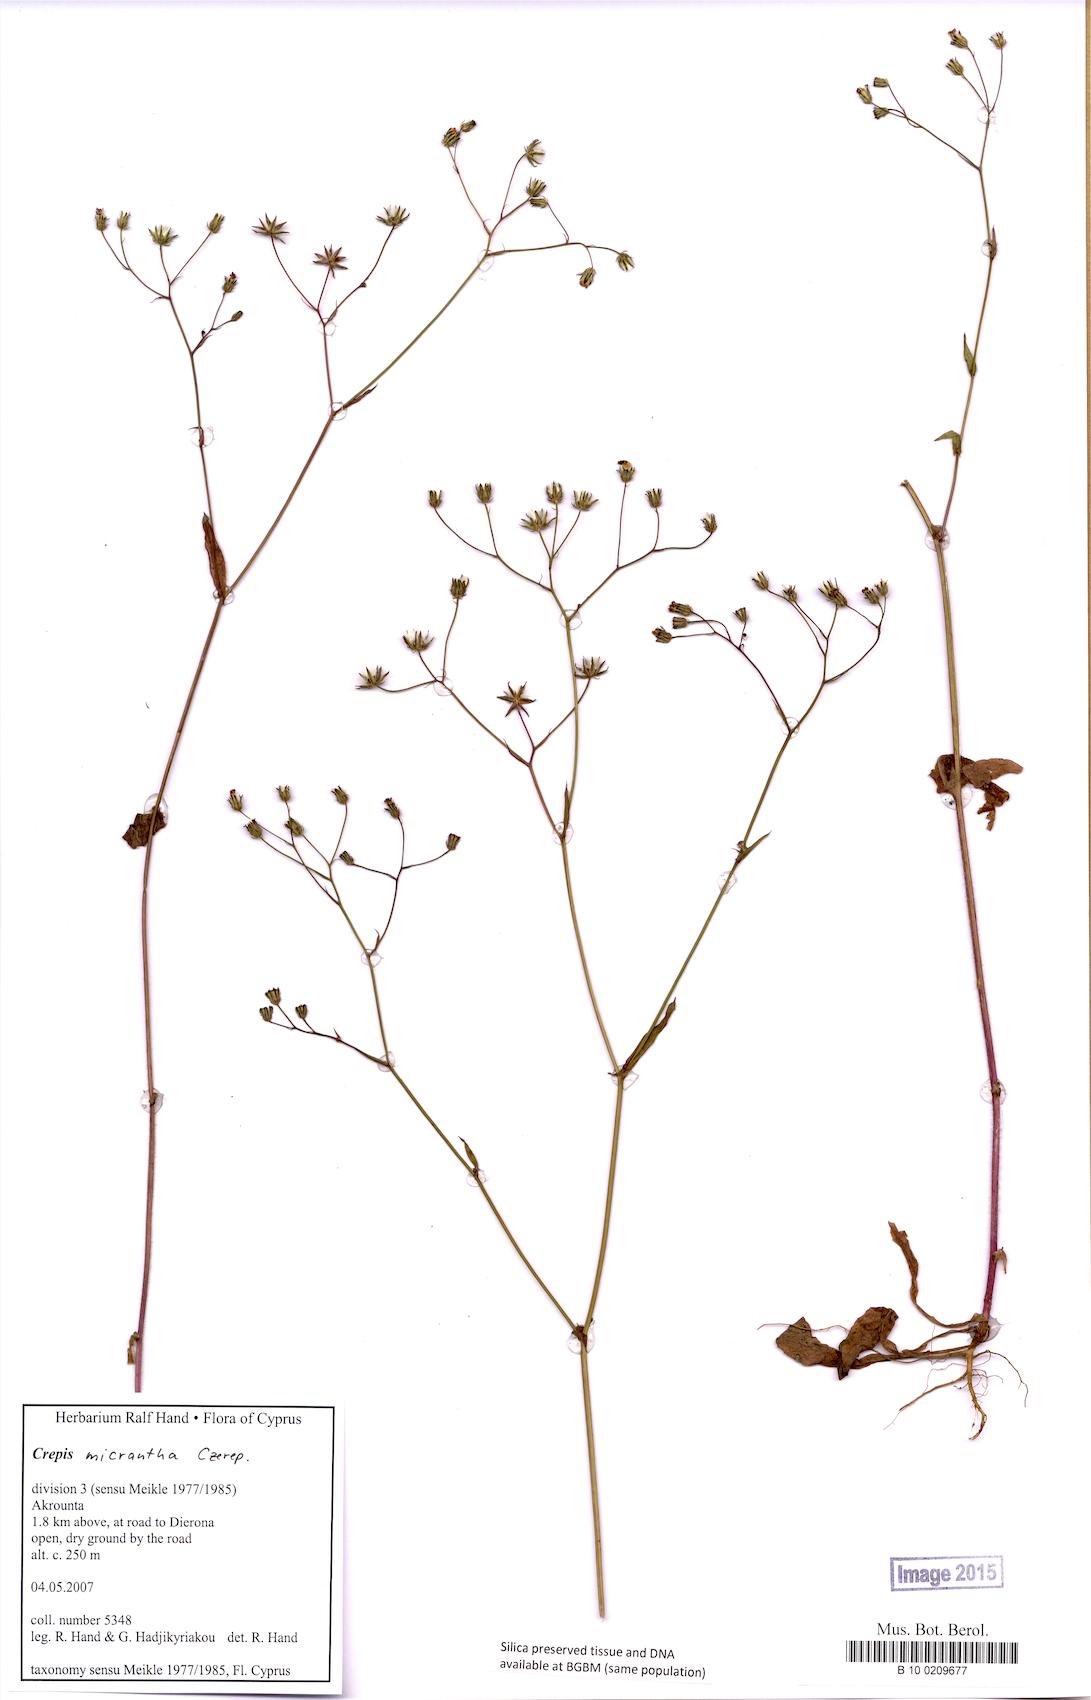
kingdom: Plantae
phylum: Tracheophyta
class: Magnoliopsida
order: Asterales
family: Asteraceae
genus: Crepis
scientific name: Crepis micrantha
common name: Hawk's-beard
